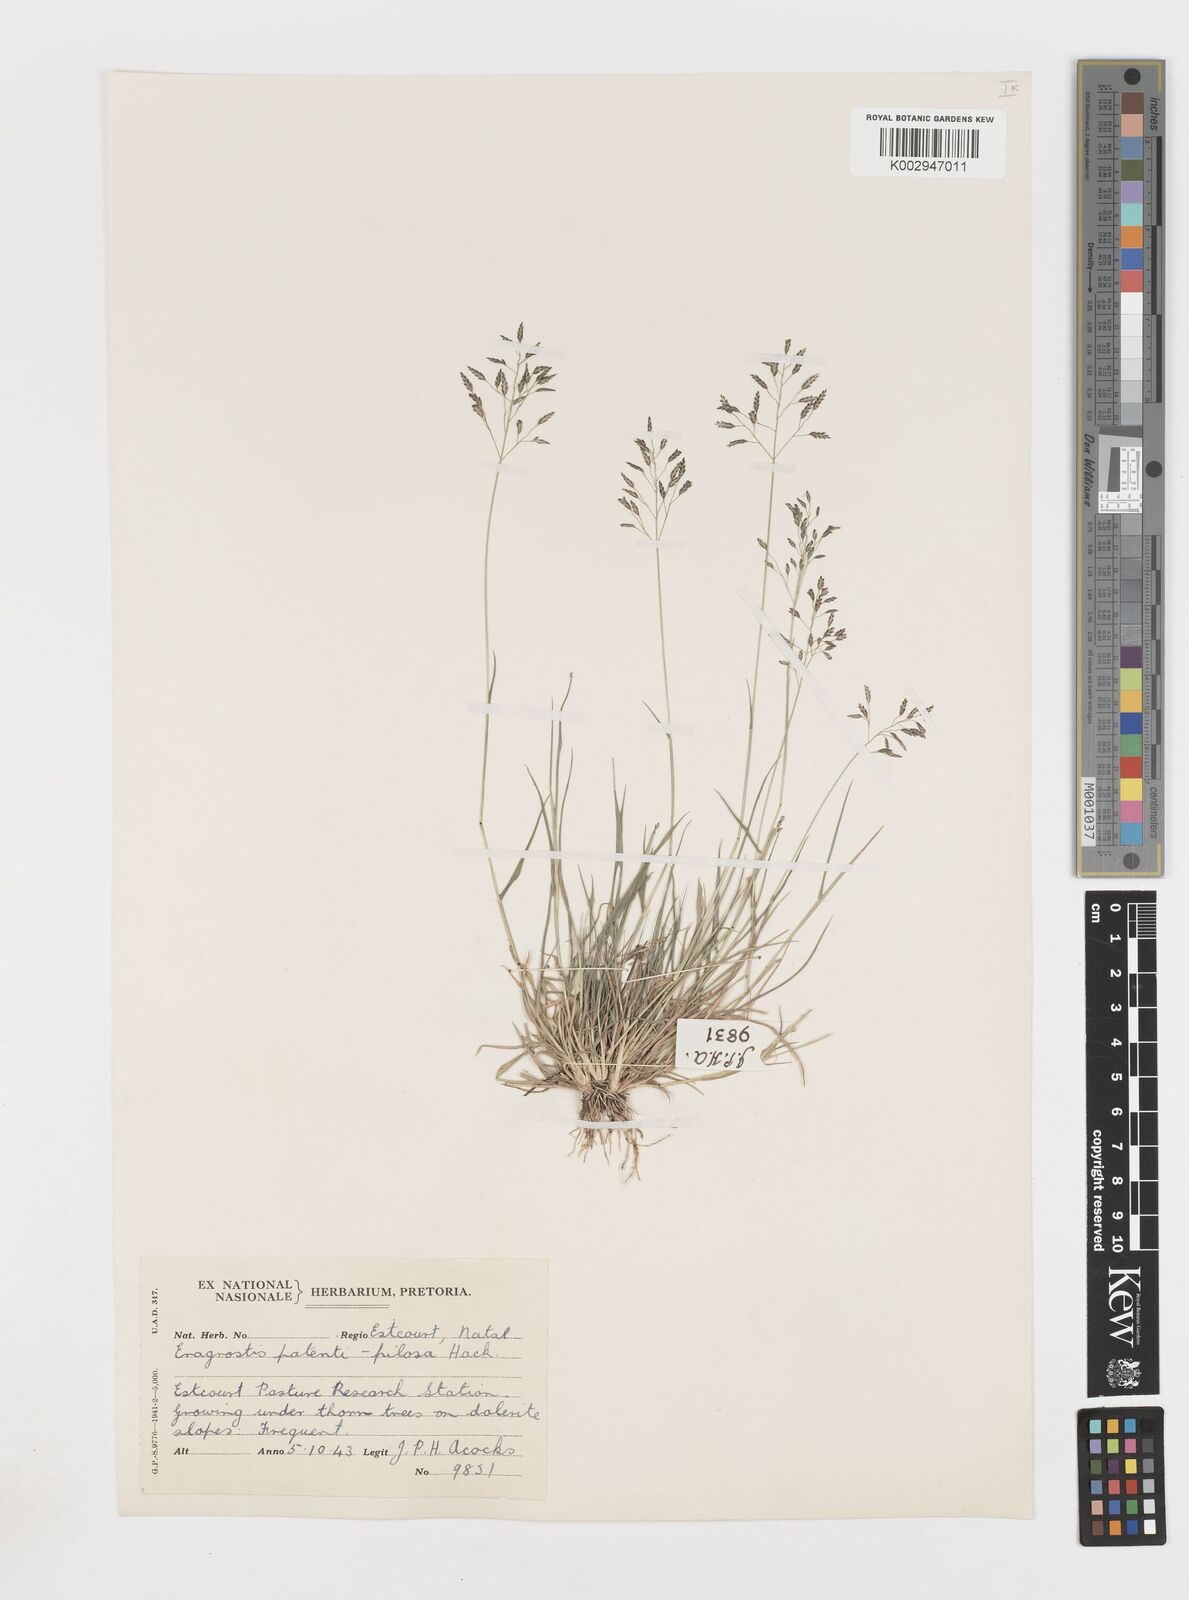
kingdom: Plantae
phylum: Tracheophyta
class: Liliopsida
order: Poales
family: Poaceae
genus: Eragrostis
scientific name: Eragrostis patentipilosa
